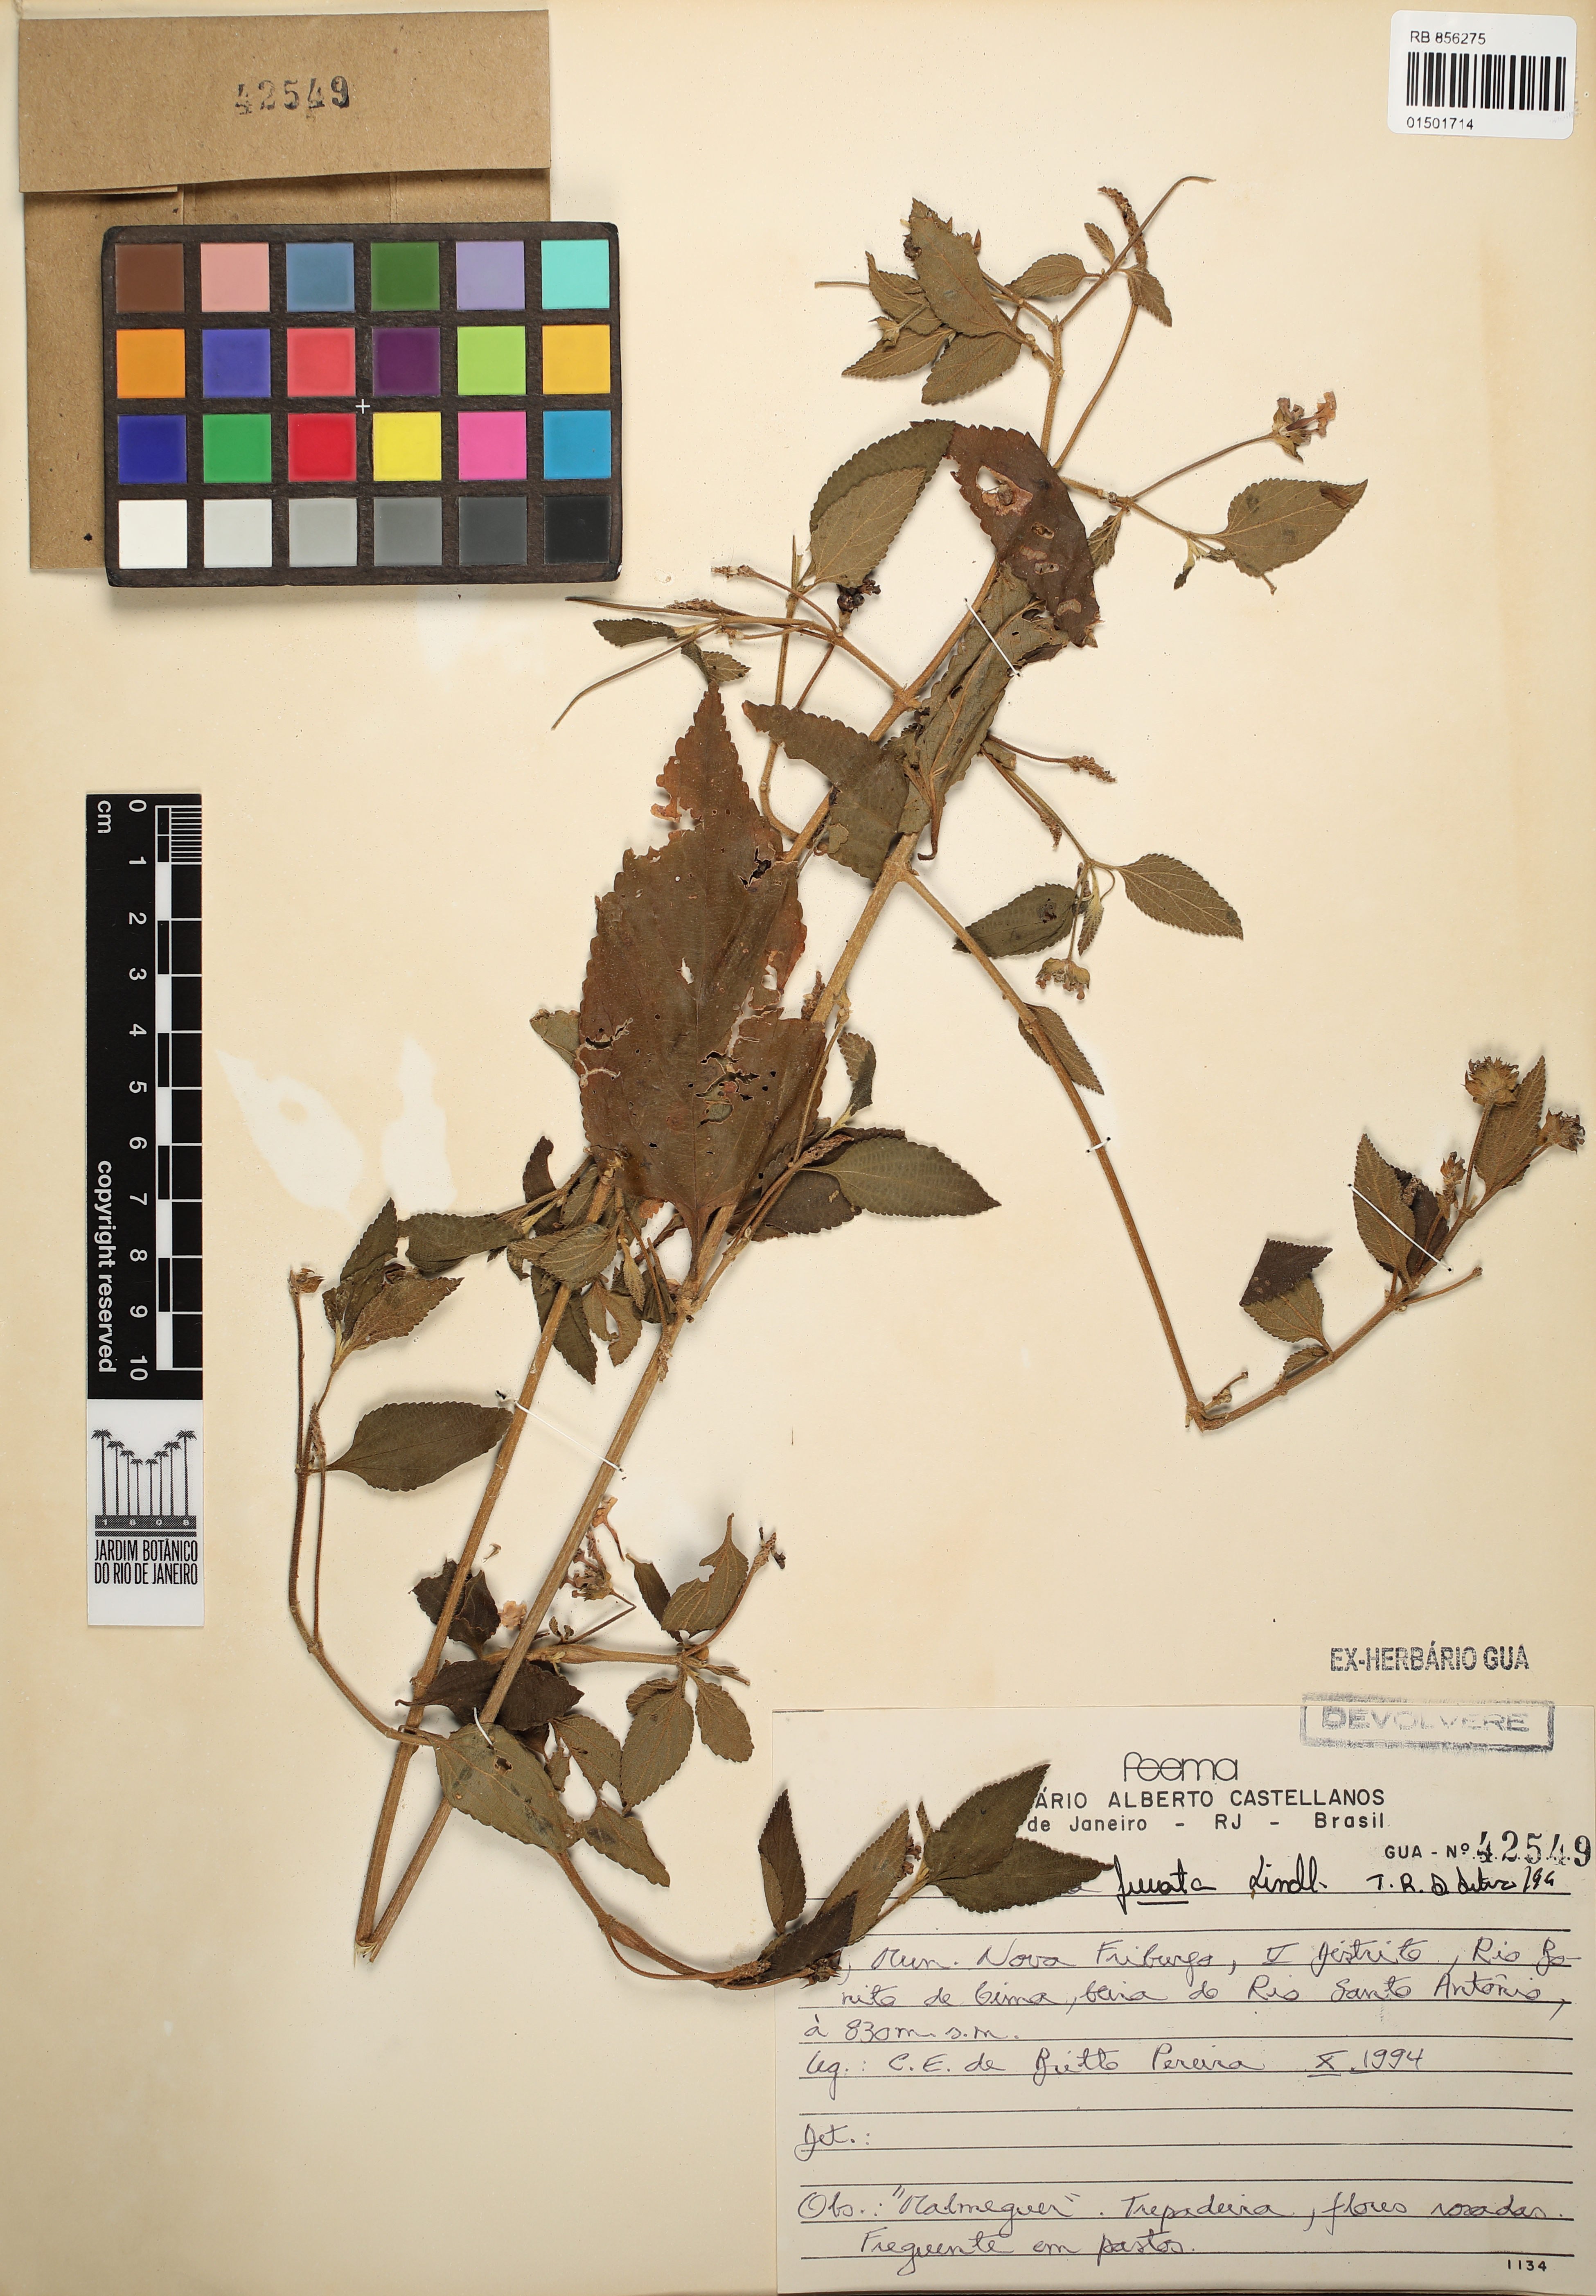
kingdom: Plantae
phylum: Tracheophyta
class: Magnoliopsida
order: Lamiales
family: Verbenaceae
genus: Lantana
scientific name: Lantana fucata
